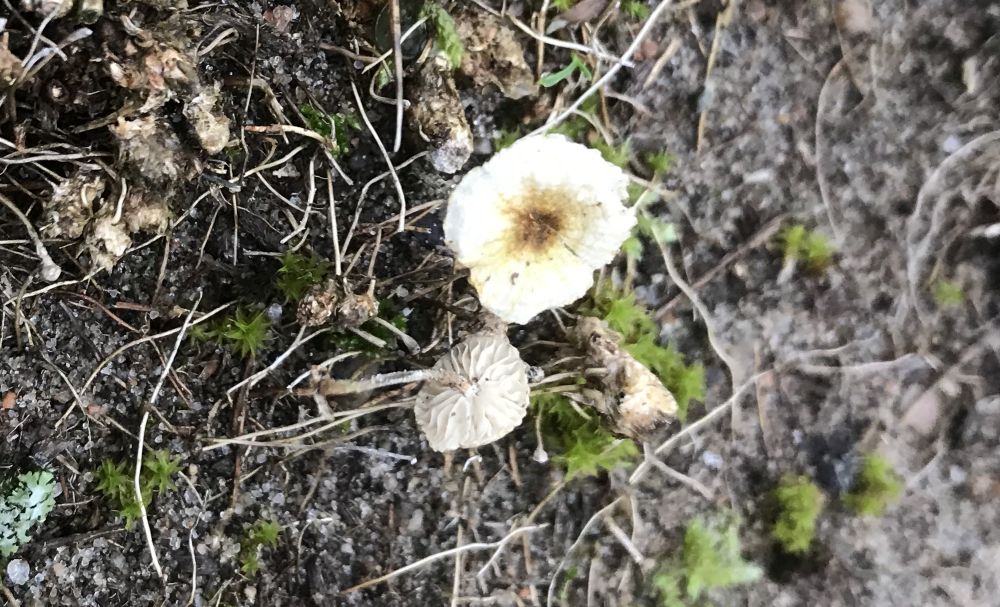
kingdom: Fungi
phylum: Basidiomycota
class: Agaricomycetes
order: Agaricales
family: Marasmiaceae
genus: Crinipellis
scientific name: Crinipellis scabella
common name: børstefod
